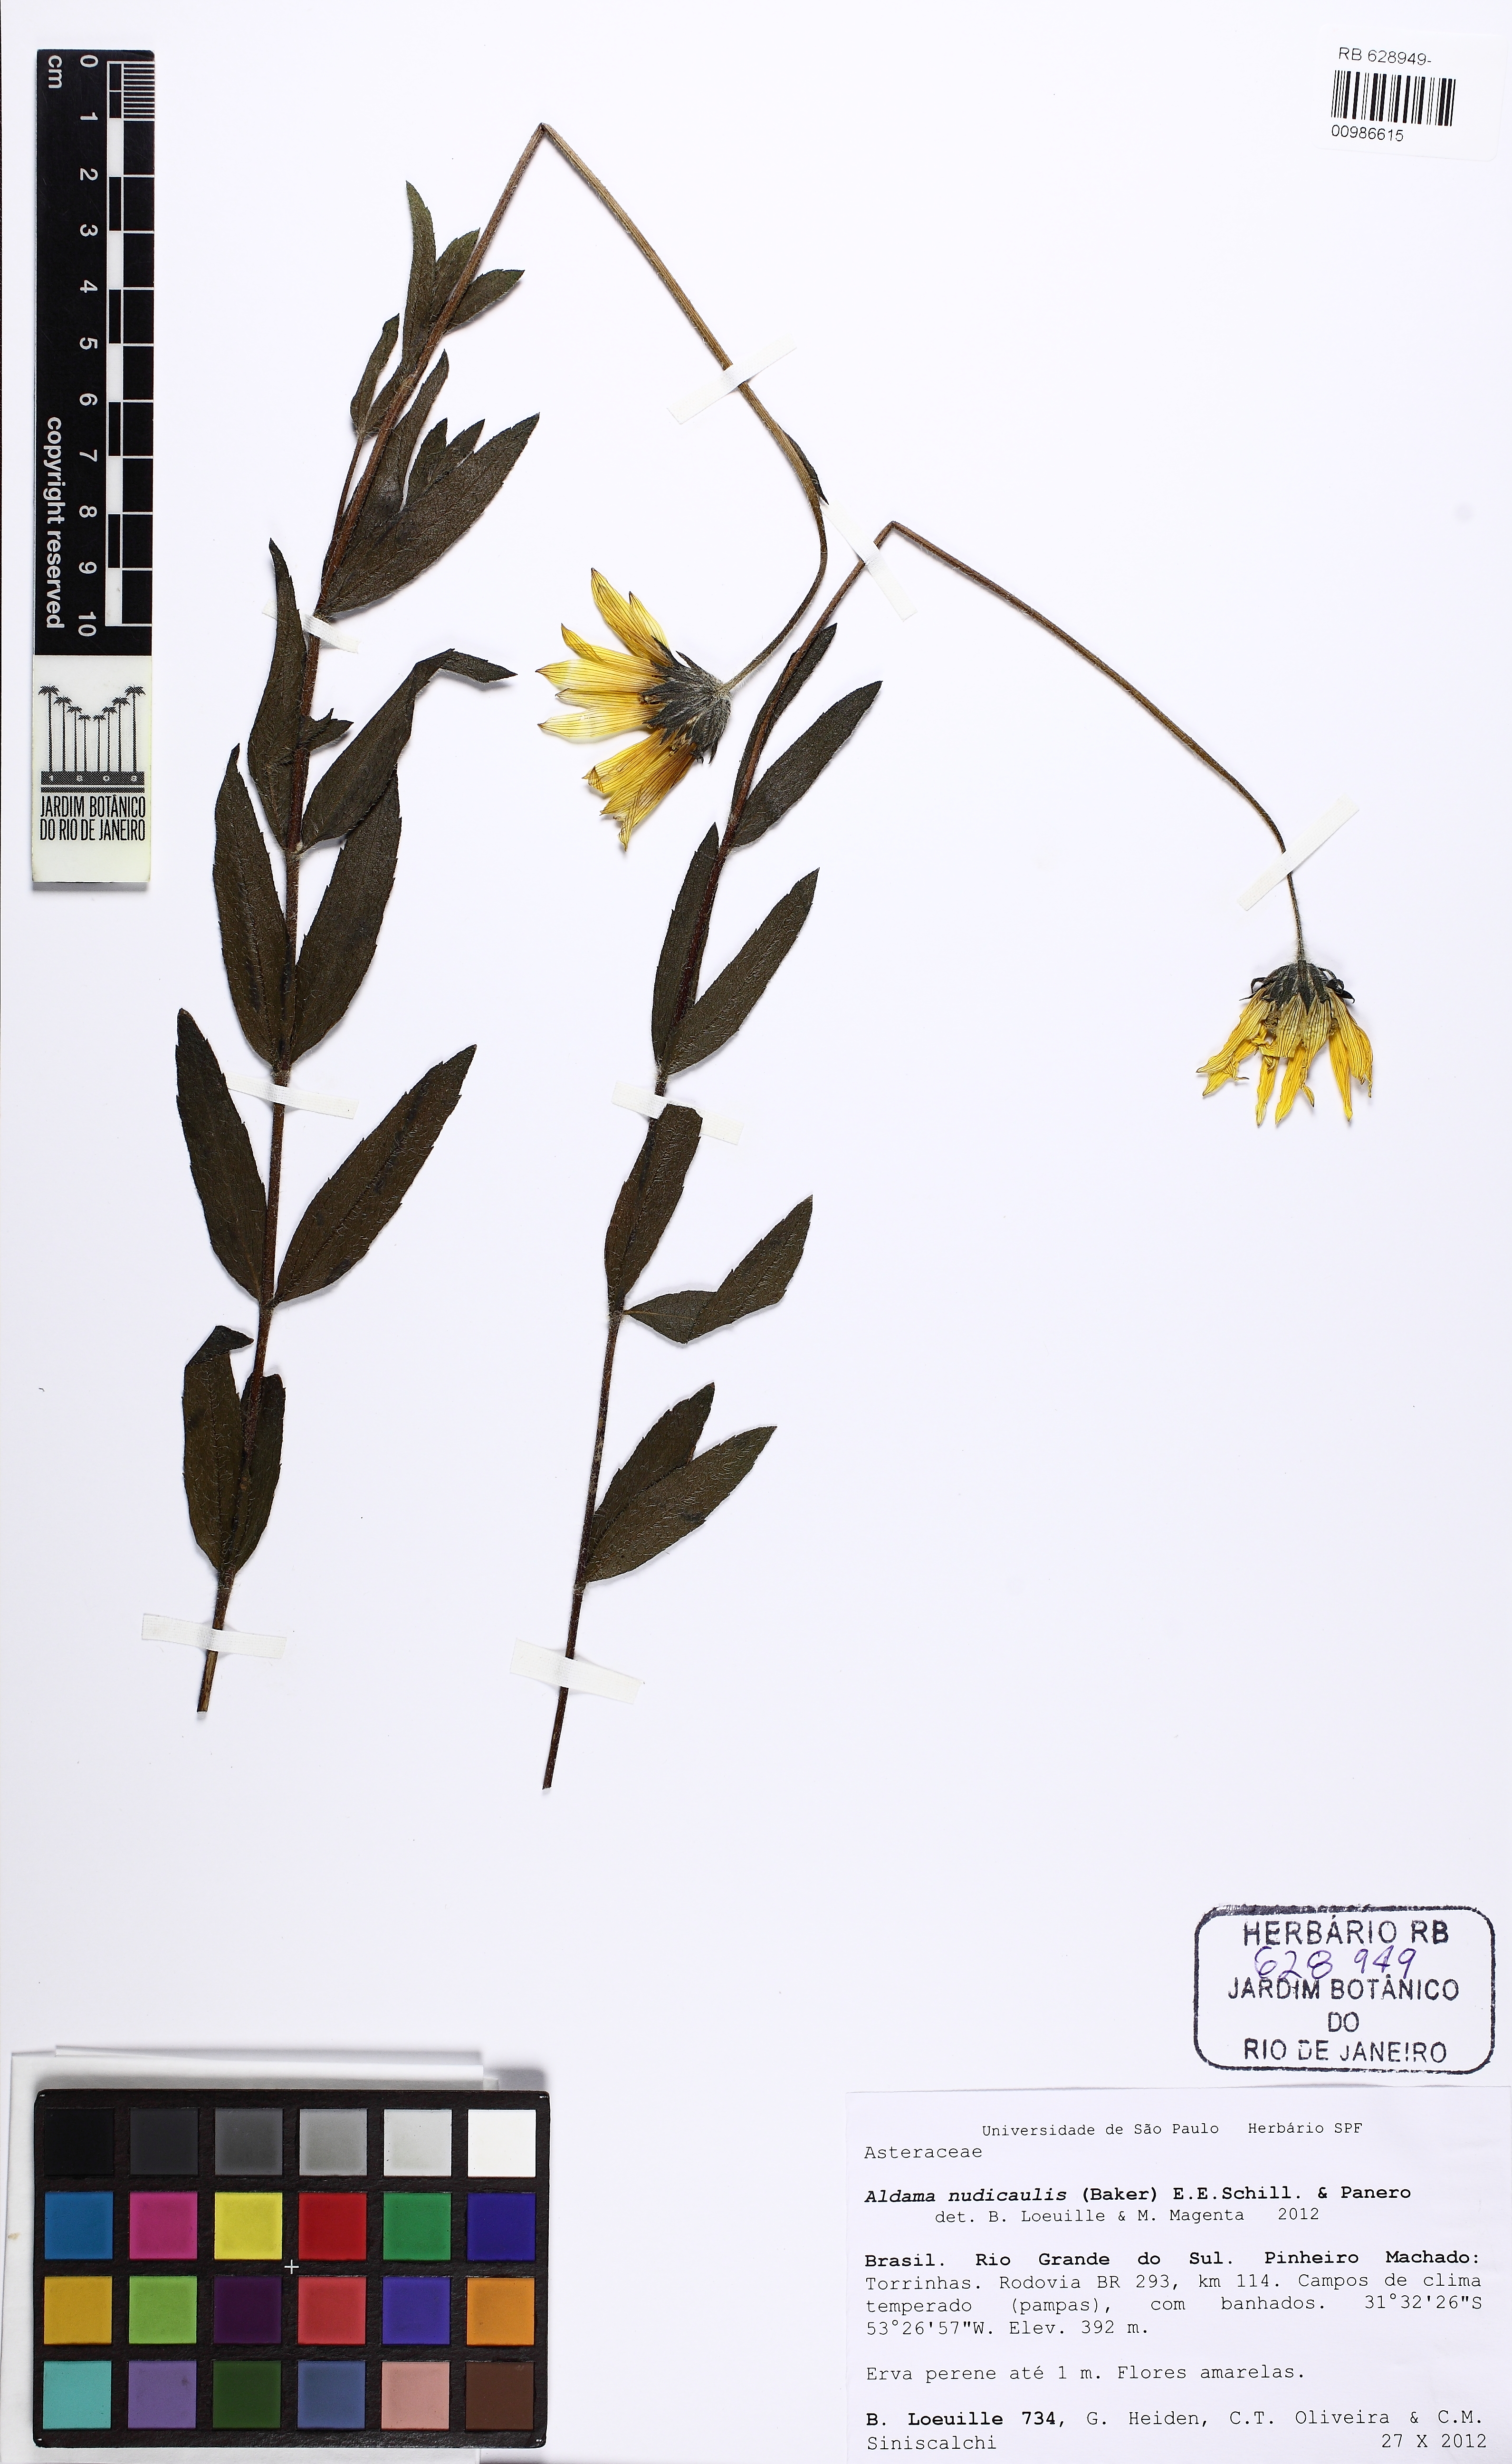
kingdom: Plantae
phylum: Tracheophyta
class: Magnoliopsida
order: Asterales
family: Asteraceae
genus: Aldama
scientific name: Aldama nudicaulis
